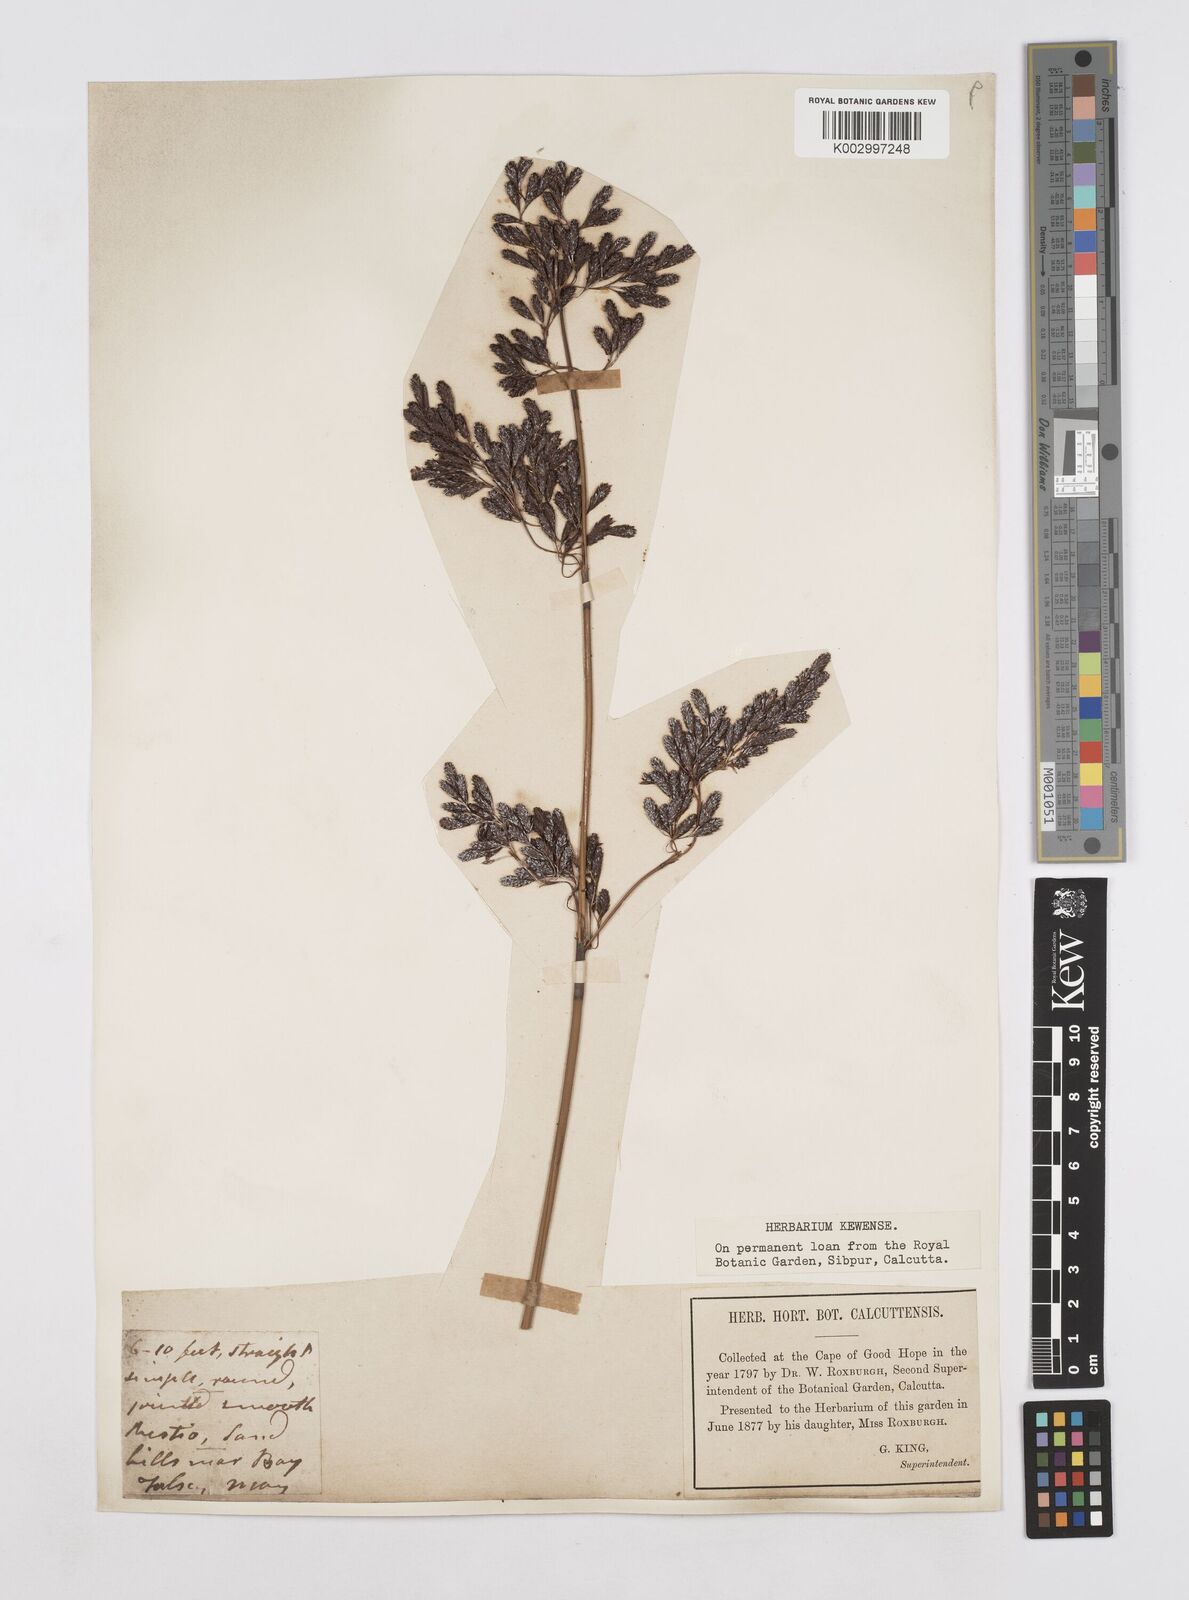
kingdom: Plantae
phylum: Tracheophyta
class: Liliopsida
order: Poales
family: Restionaceae
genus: Thamnochortus
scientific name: Thamnochortus spicigerus
